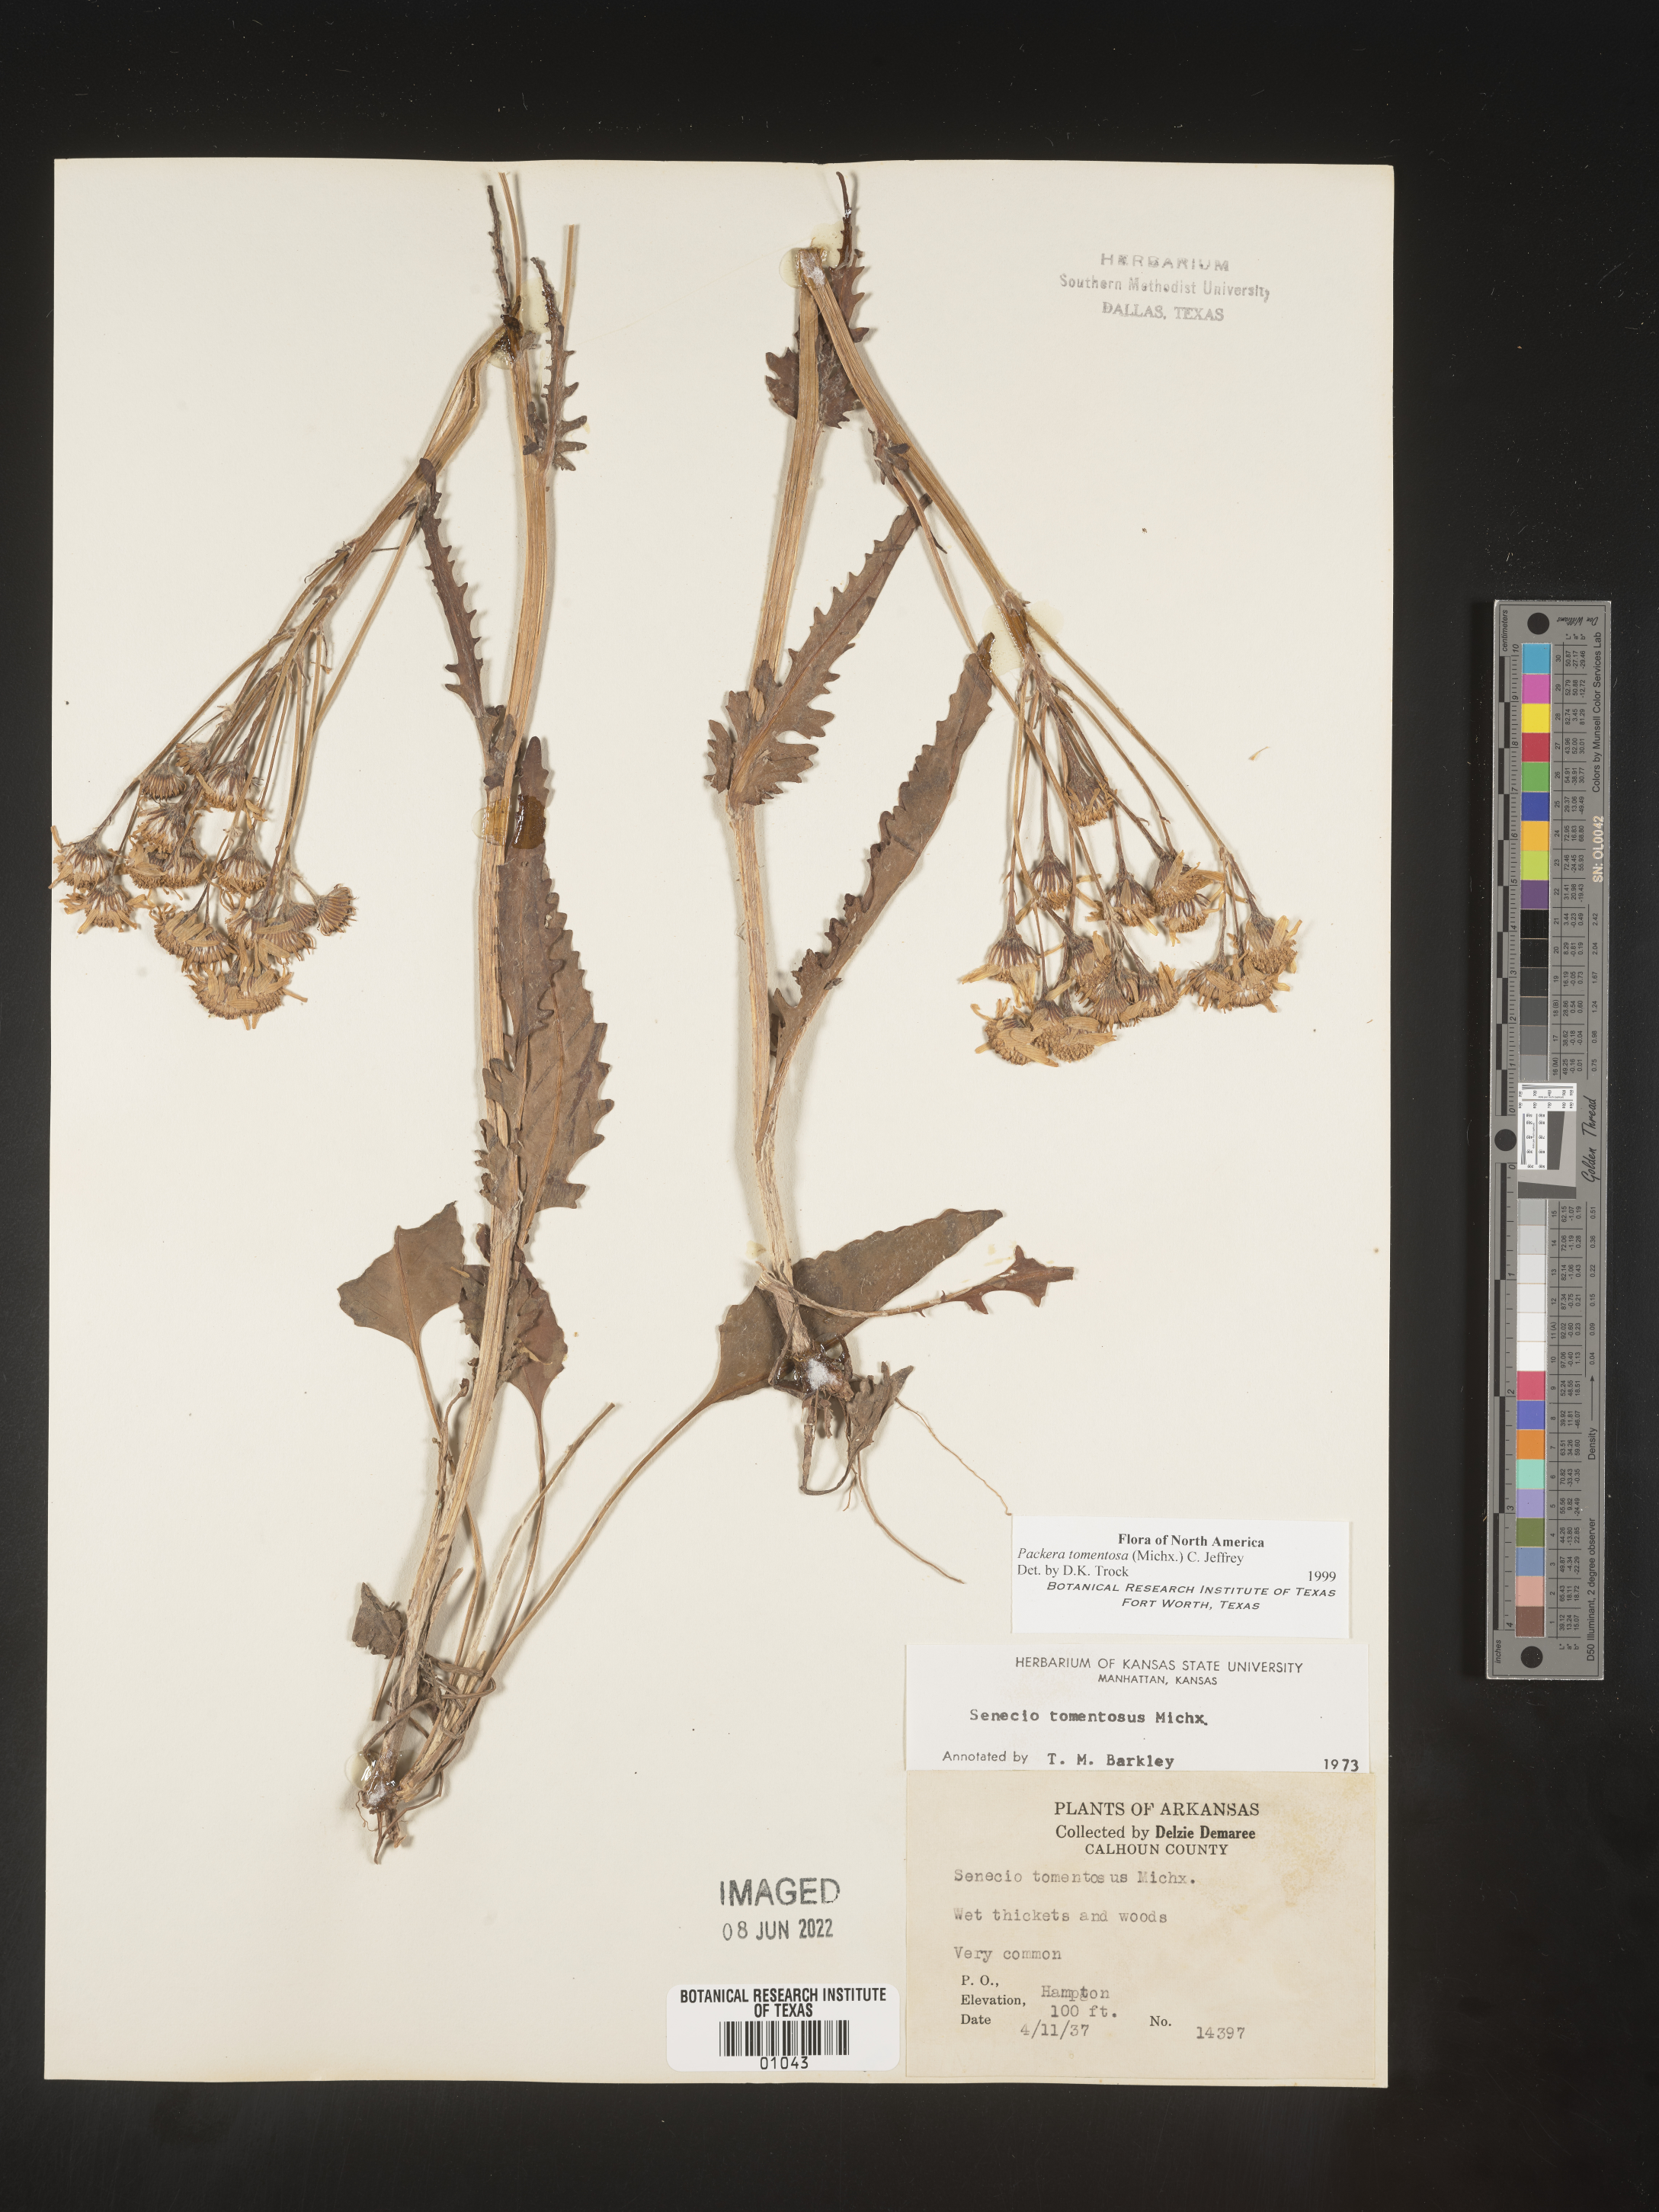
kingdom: Plantae
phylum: Tracheophyta
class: Magnoliopsida
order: Asterales
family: Asteraceae
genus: Packera
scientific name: Packera dubia
